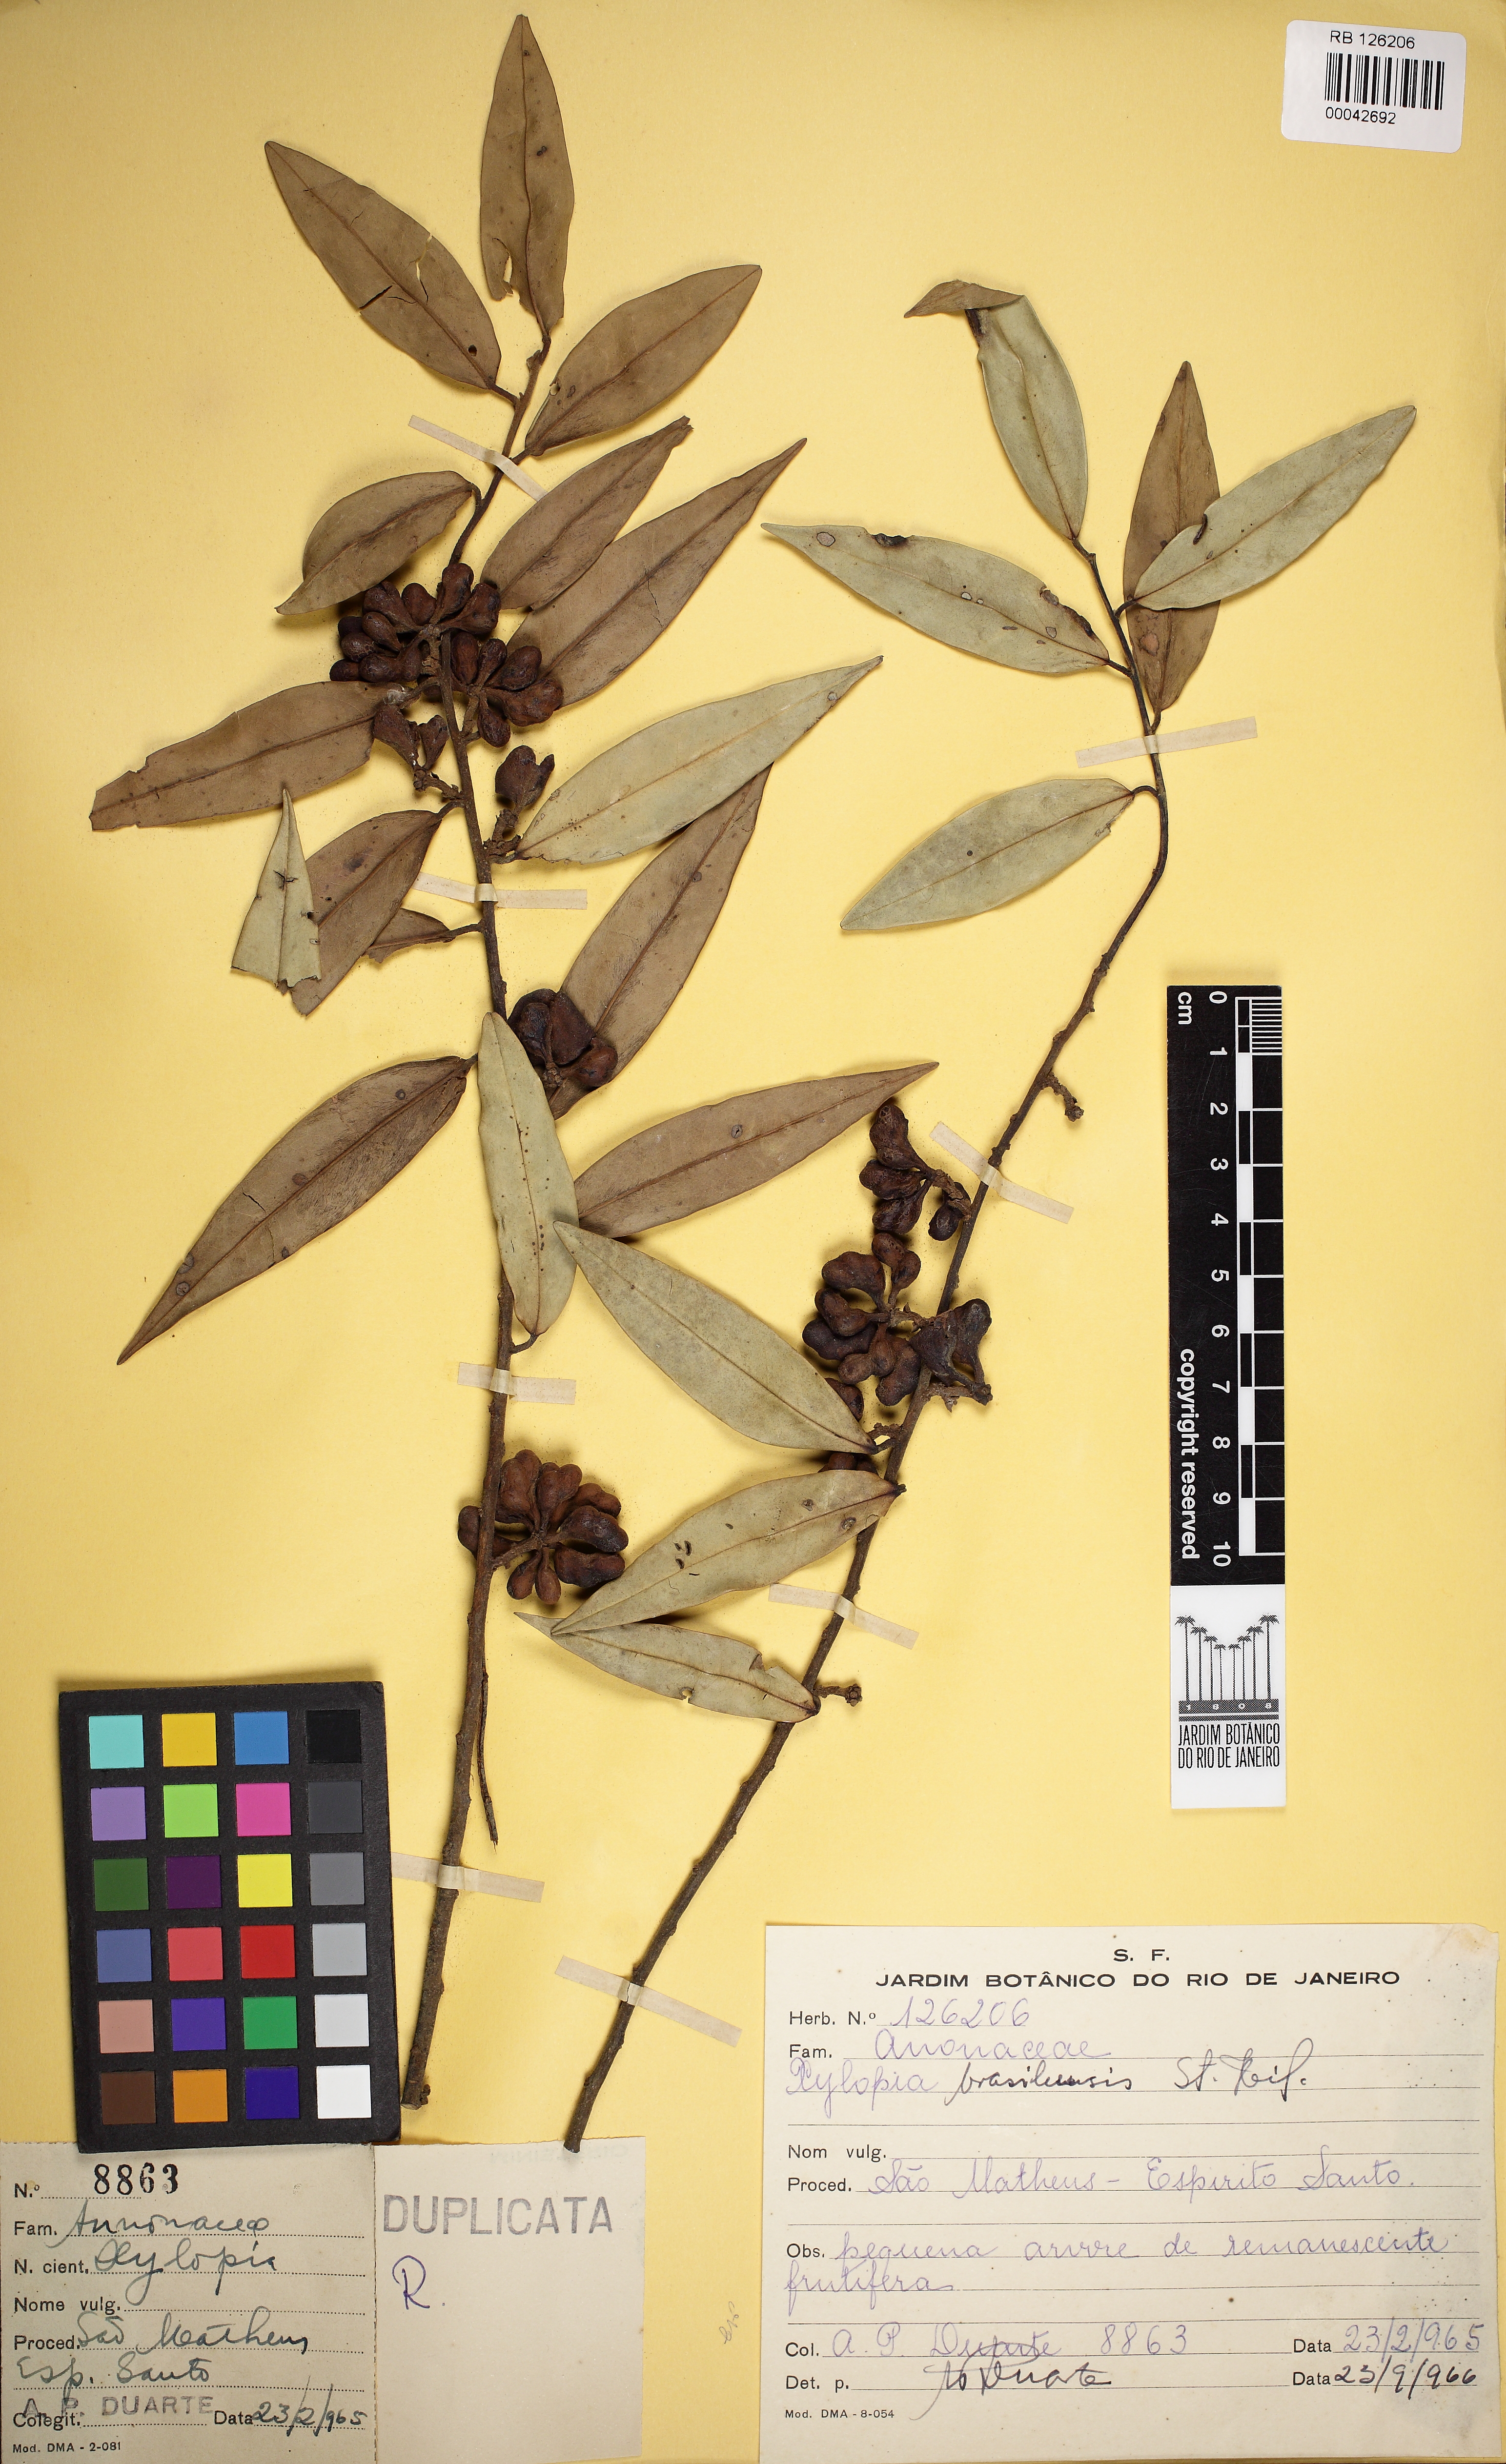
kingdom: Plantae
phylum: Tracheophyta
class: Magnoliopsida
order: Magnoliales
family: Annonaceae
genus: Xylopia
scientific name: Xylopia brasiliensis
